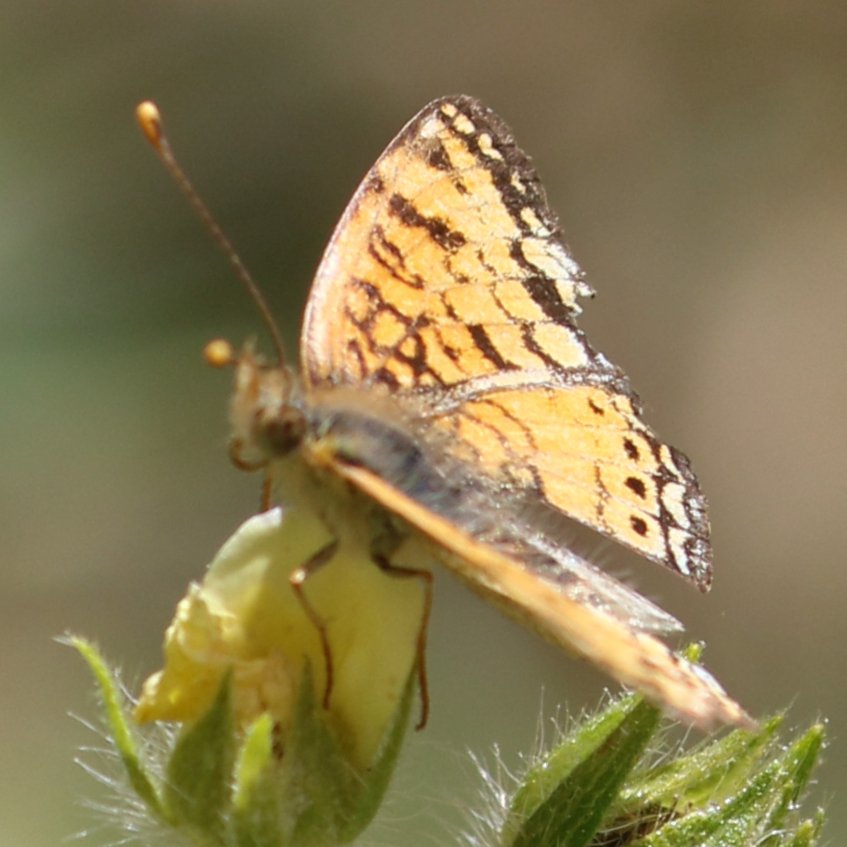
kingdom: Animalia
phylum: Arthropoda
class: Insecta
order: Lepidoptera
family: Nymphalidae
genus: Eresia
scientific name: Eresia aveyrona
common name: Mylitta Crescent
